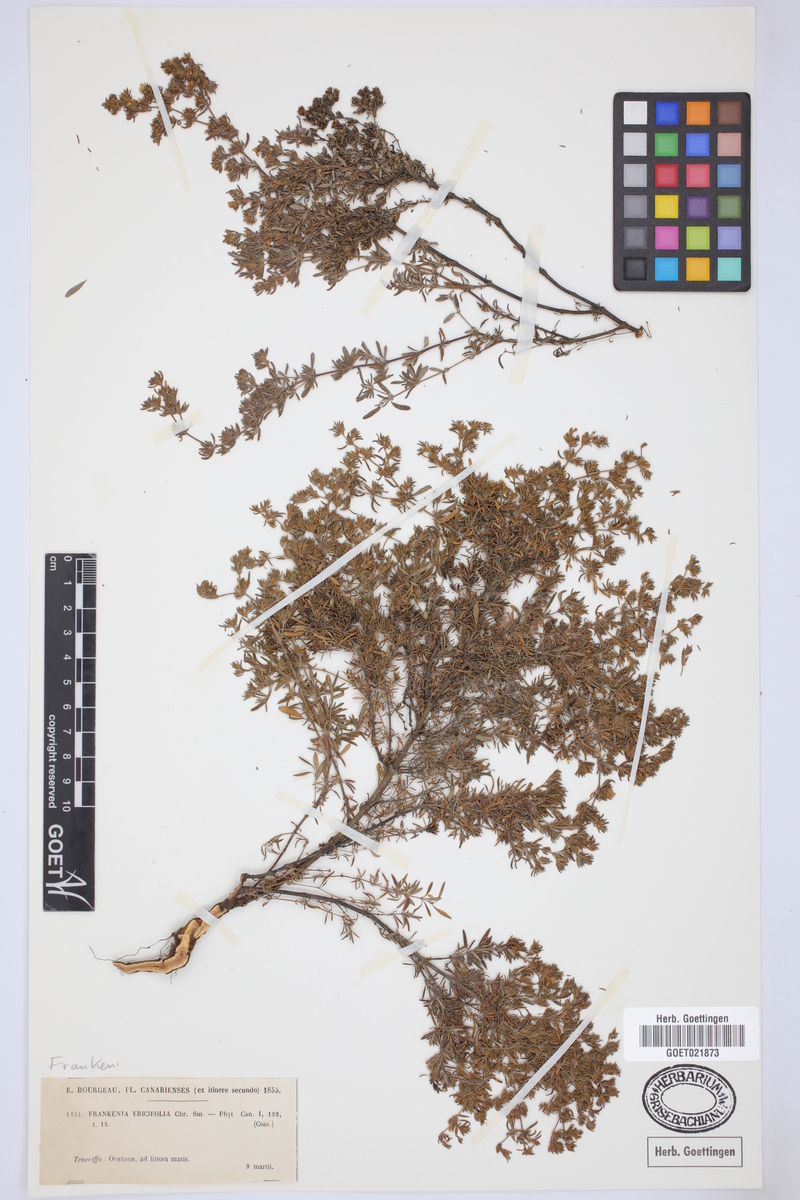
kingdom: Plantae
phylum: Tracheophyta
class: Magnoliopsida
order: Caryophyllales
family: Frankeniaceae
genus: Frankenia
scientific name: Frankenia ericifolia
